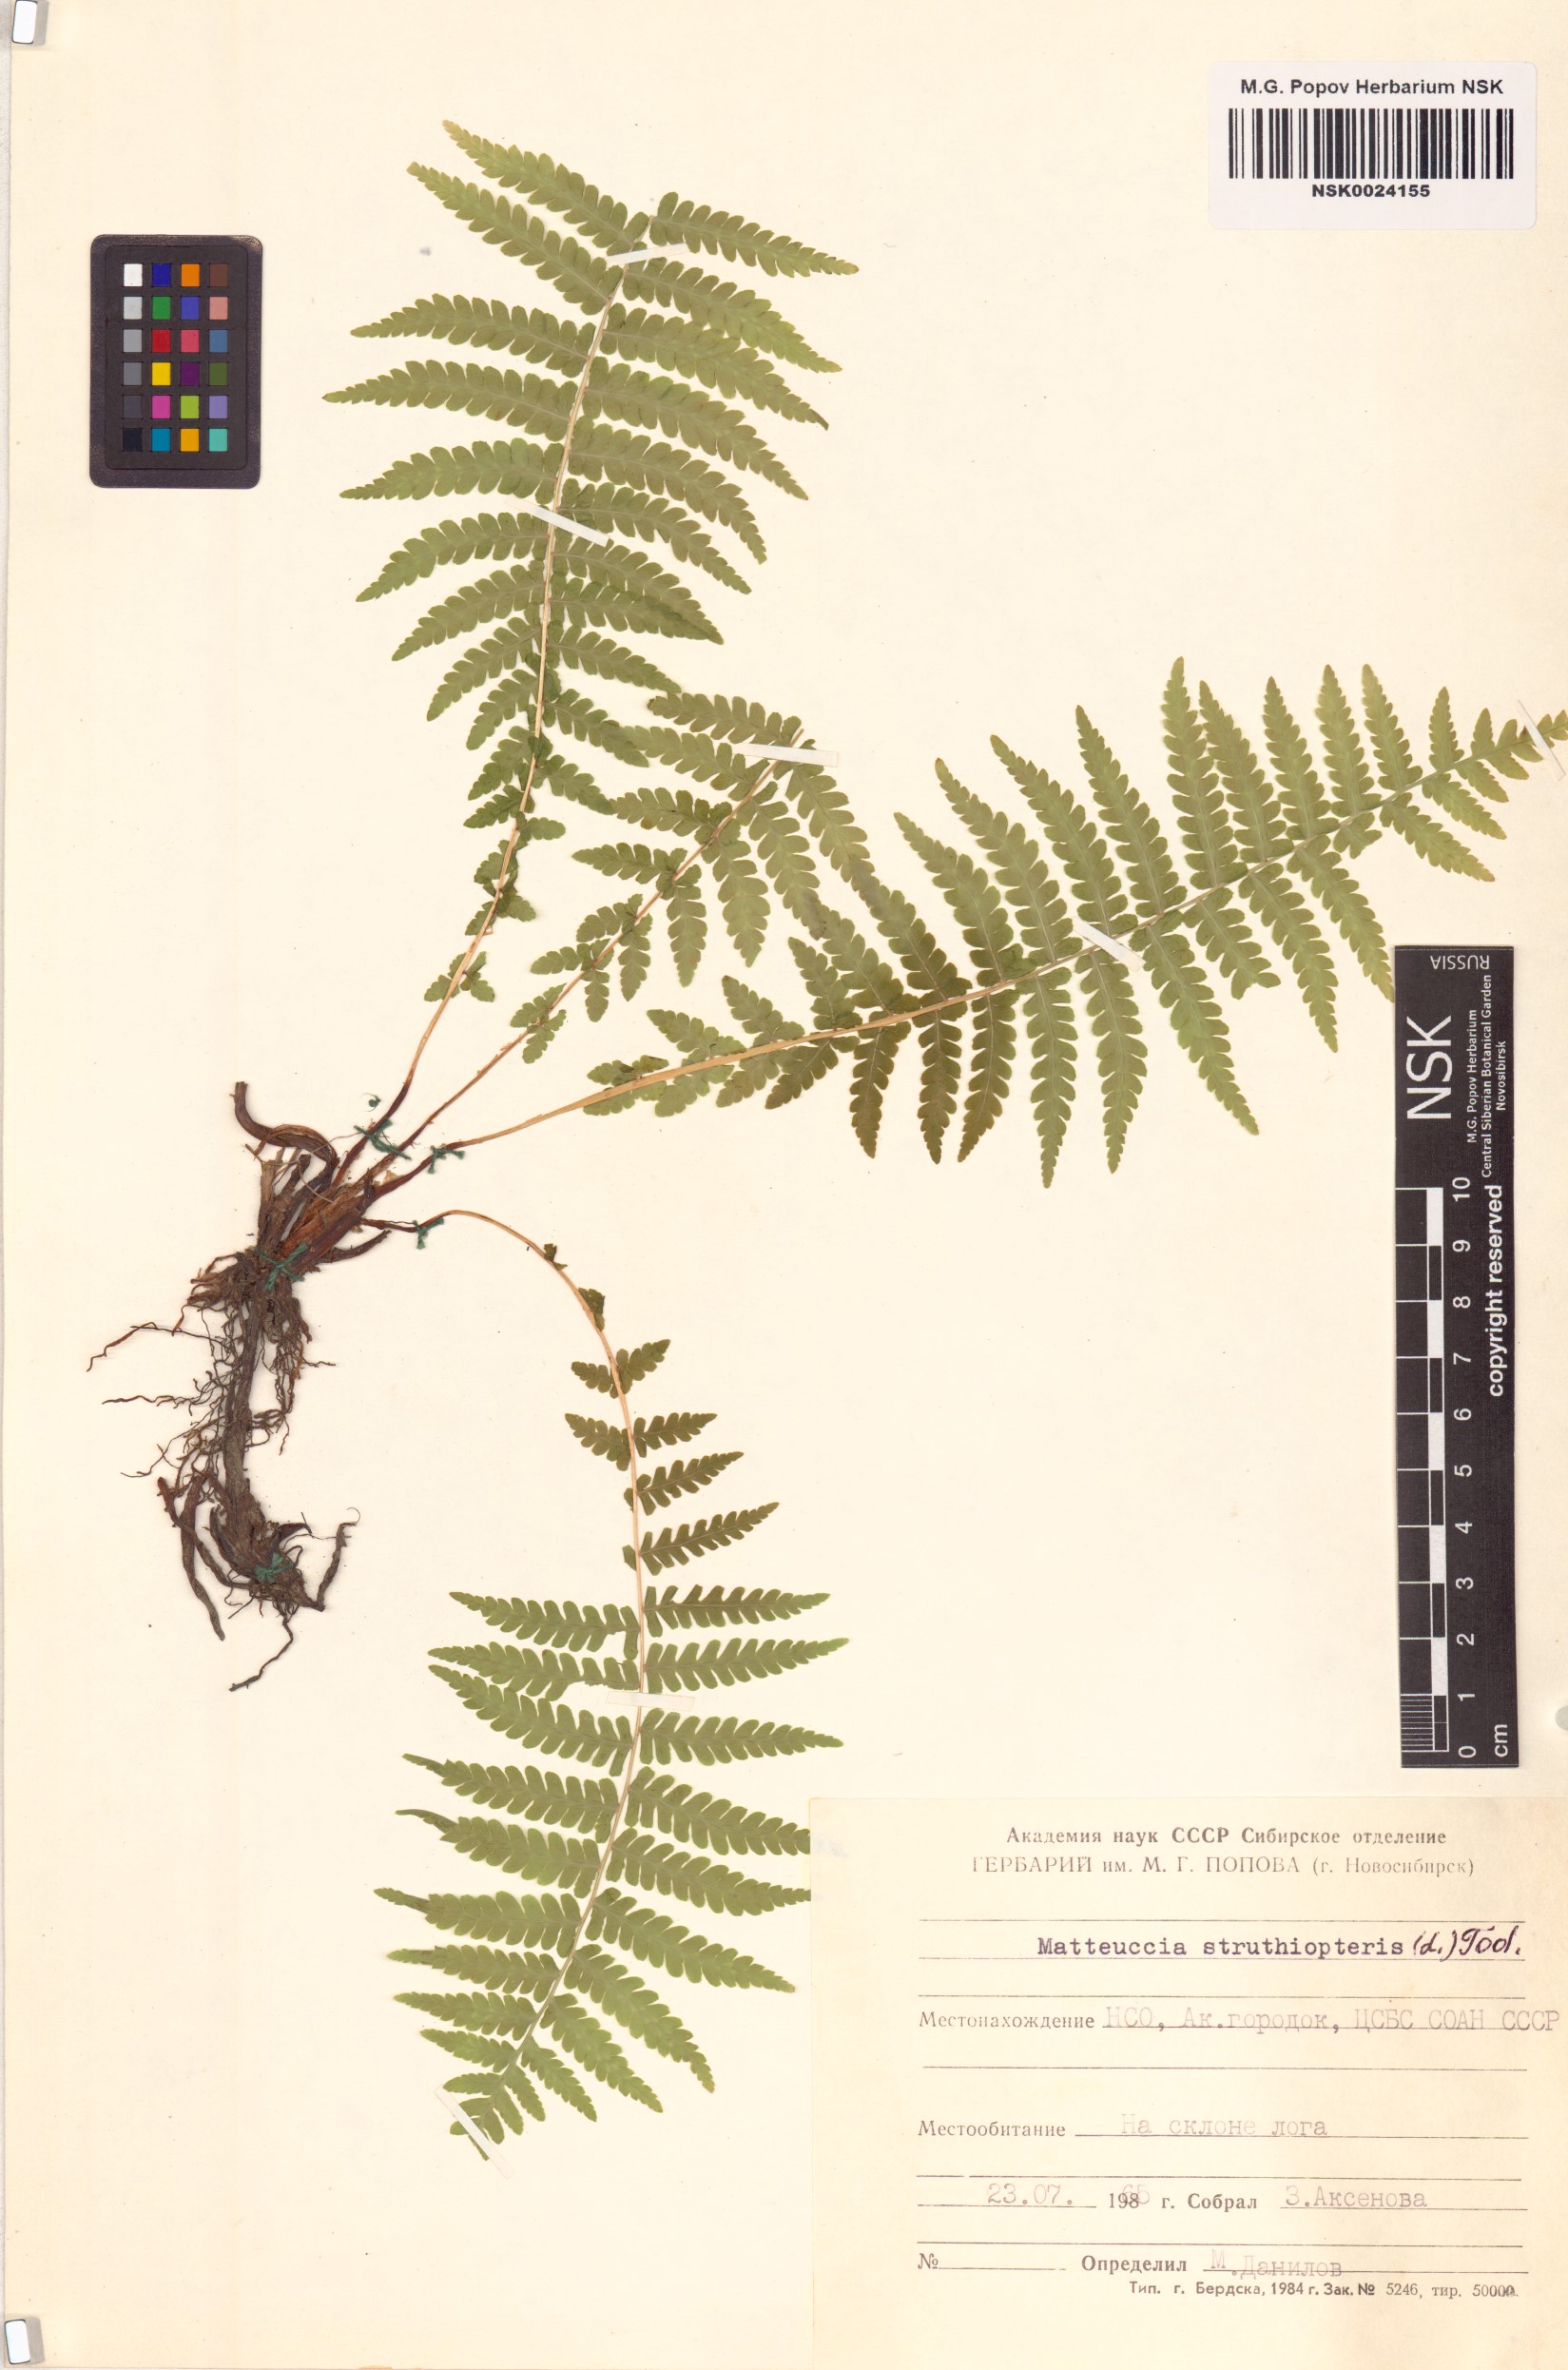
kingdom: Plantae
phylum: Tracheophyta
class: Polypodiopsida
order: Polypodiales
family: Onocleaceae
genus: Matteuccia
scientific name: Matteuccia struthiopteris
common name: Ostrich fern
